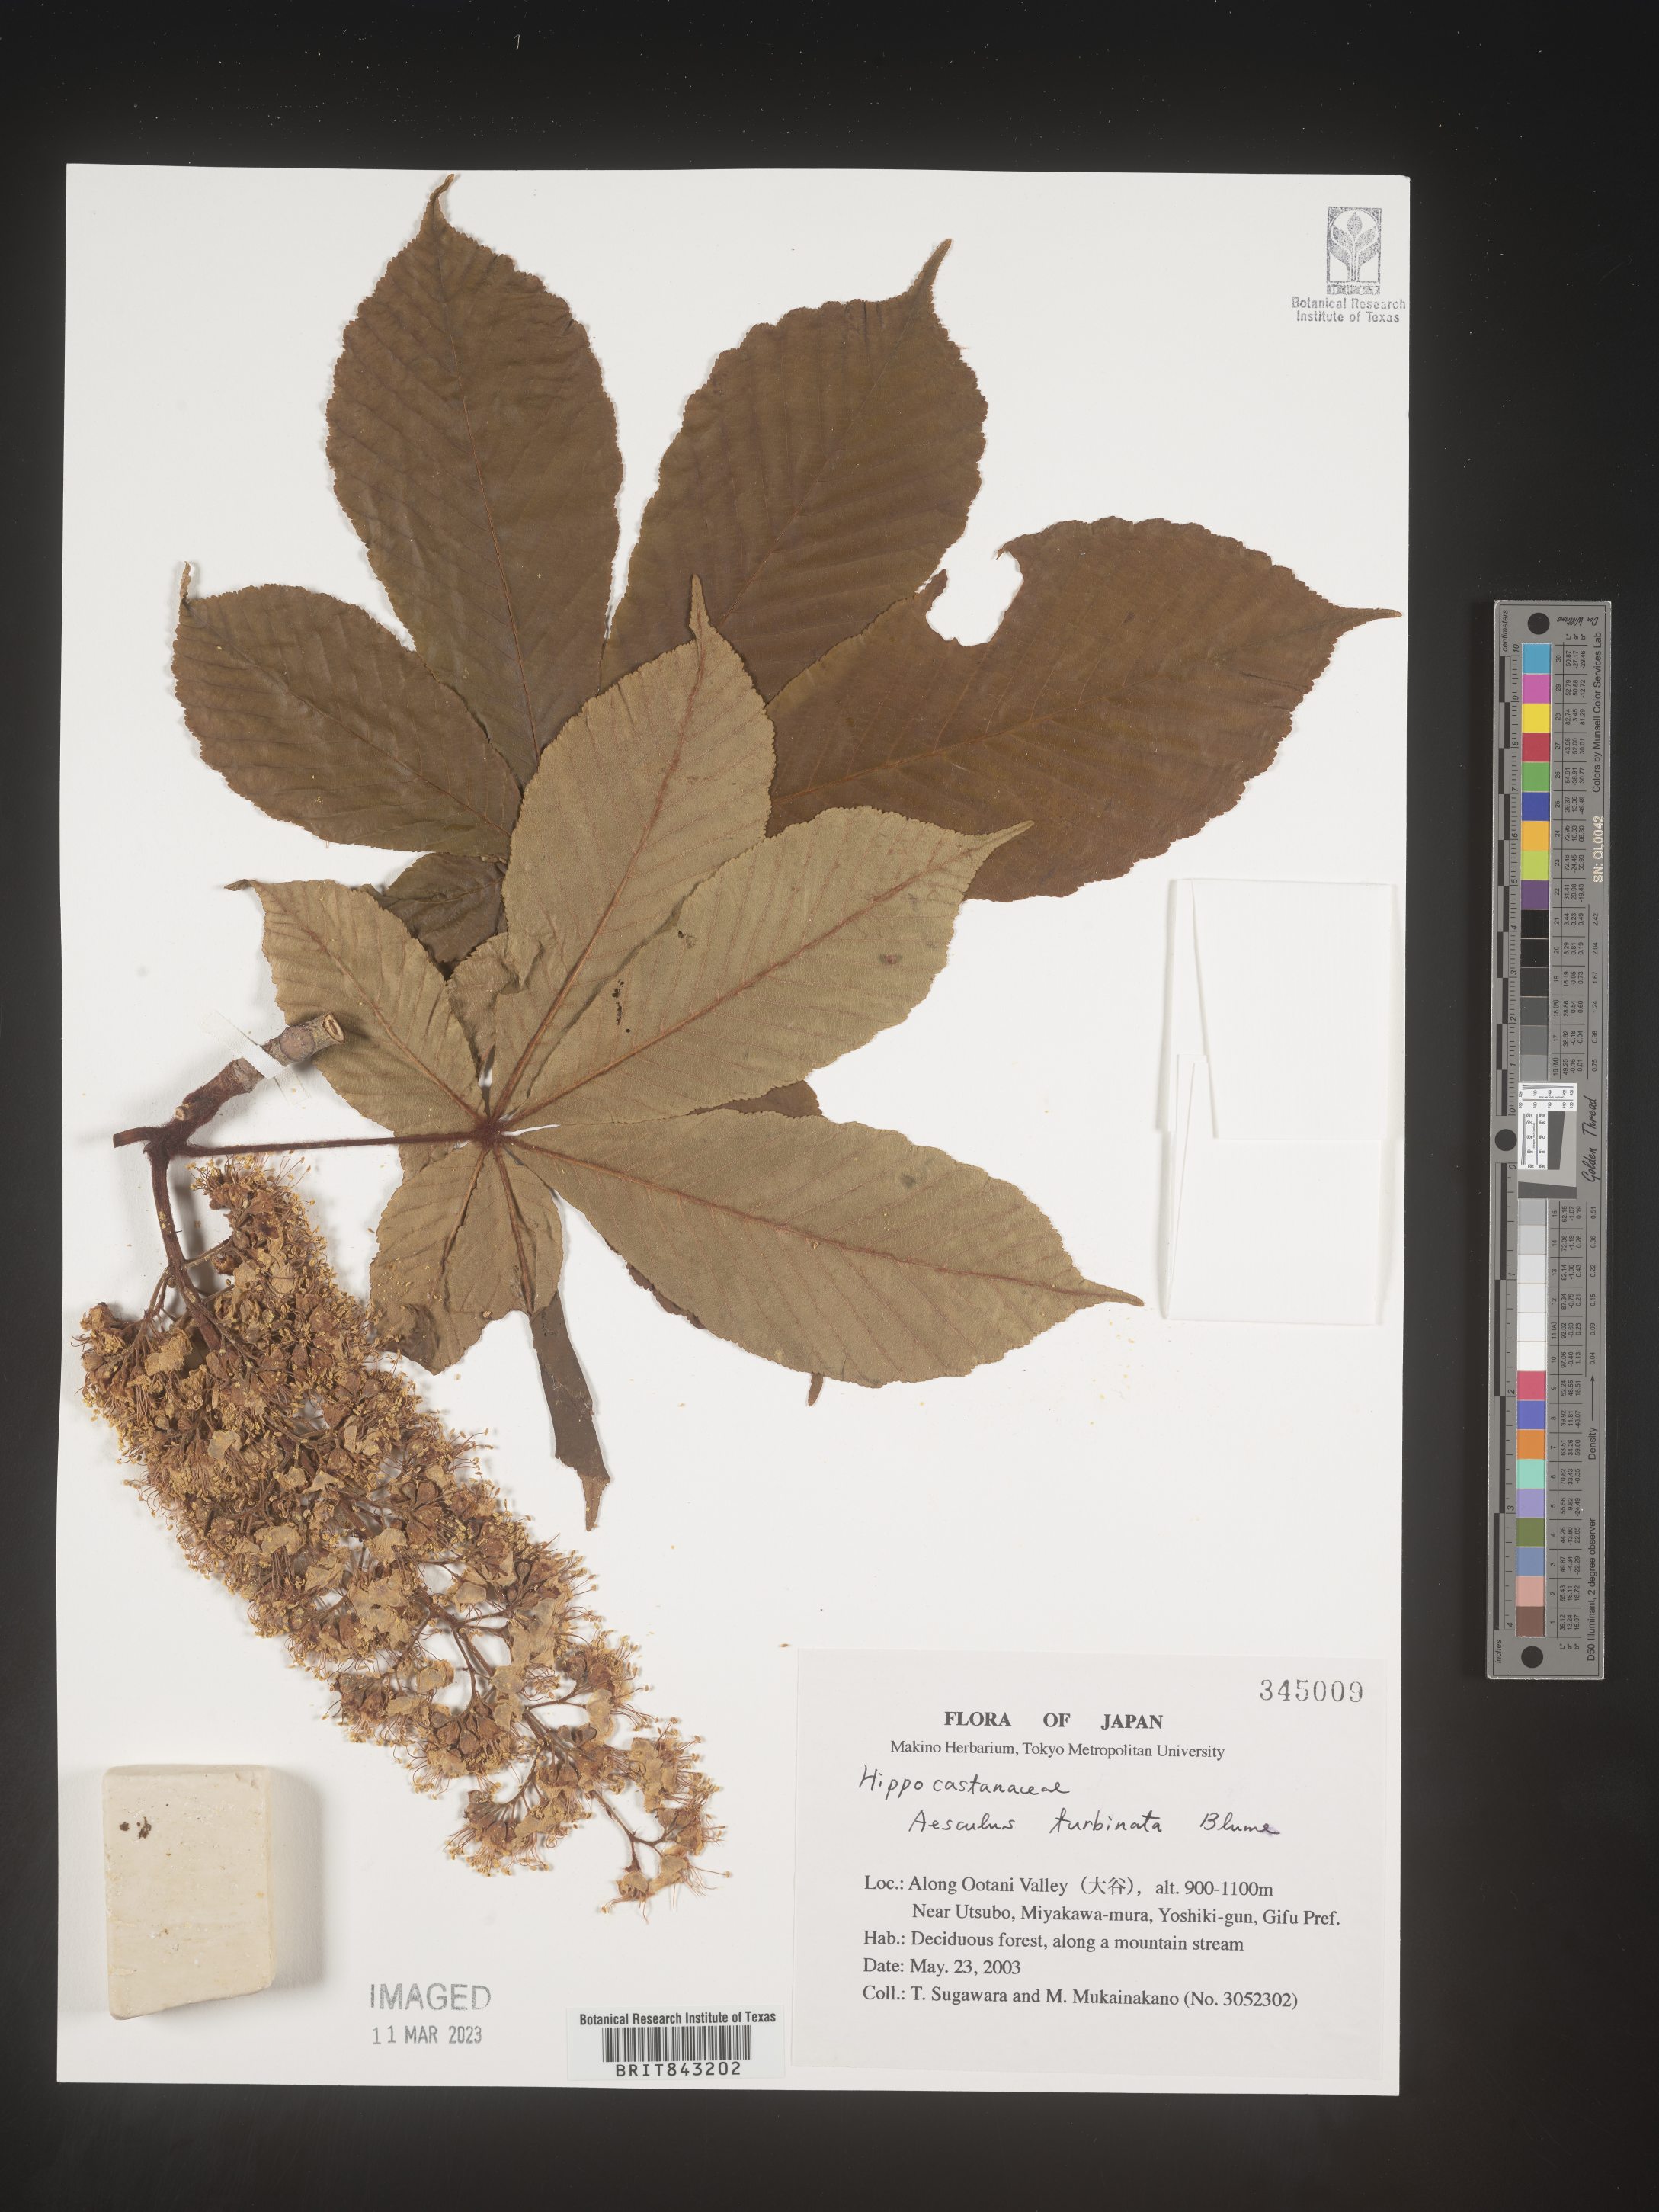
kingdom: Plantae
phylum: Tracheophyta
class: Magnoliopsida
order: Sapindales
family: Sapindaceae
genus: Aesculus
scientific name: Aesculus turbinata
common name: Japanese horse-chestnut
